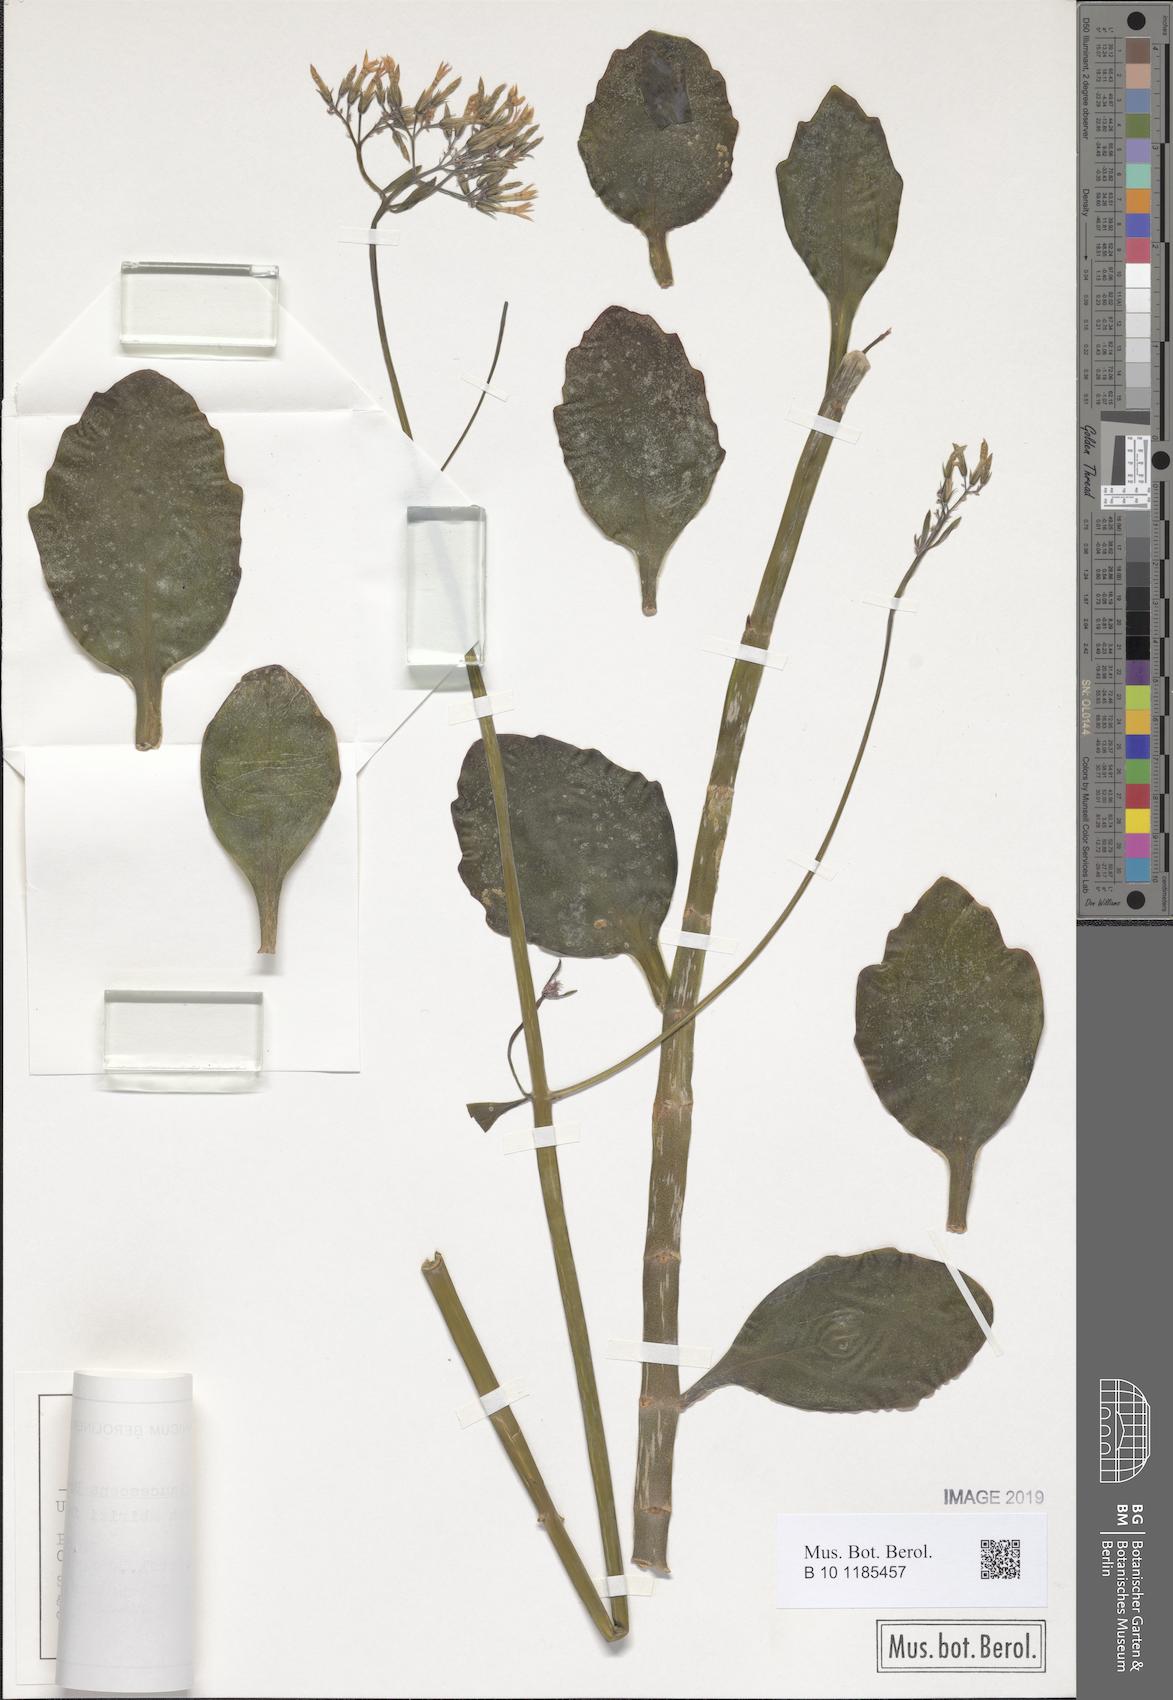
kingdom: Plantae
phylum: Tracheophyta
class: Magnoliopsida
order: Saxifragales
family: Crassulaceae
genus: Kalanchoe
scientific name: Kalanchoe glaucescens
